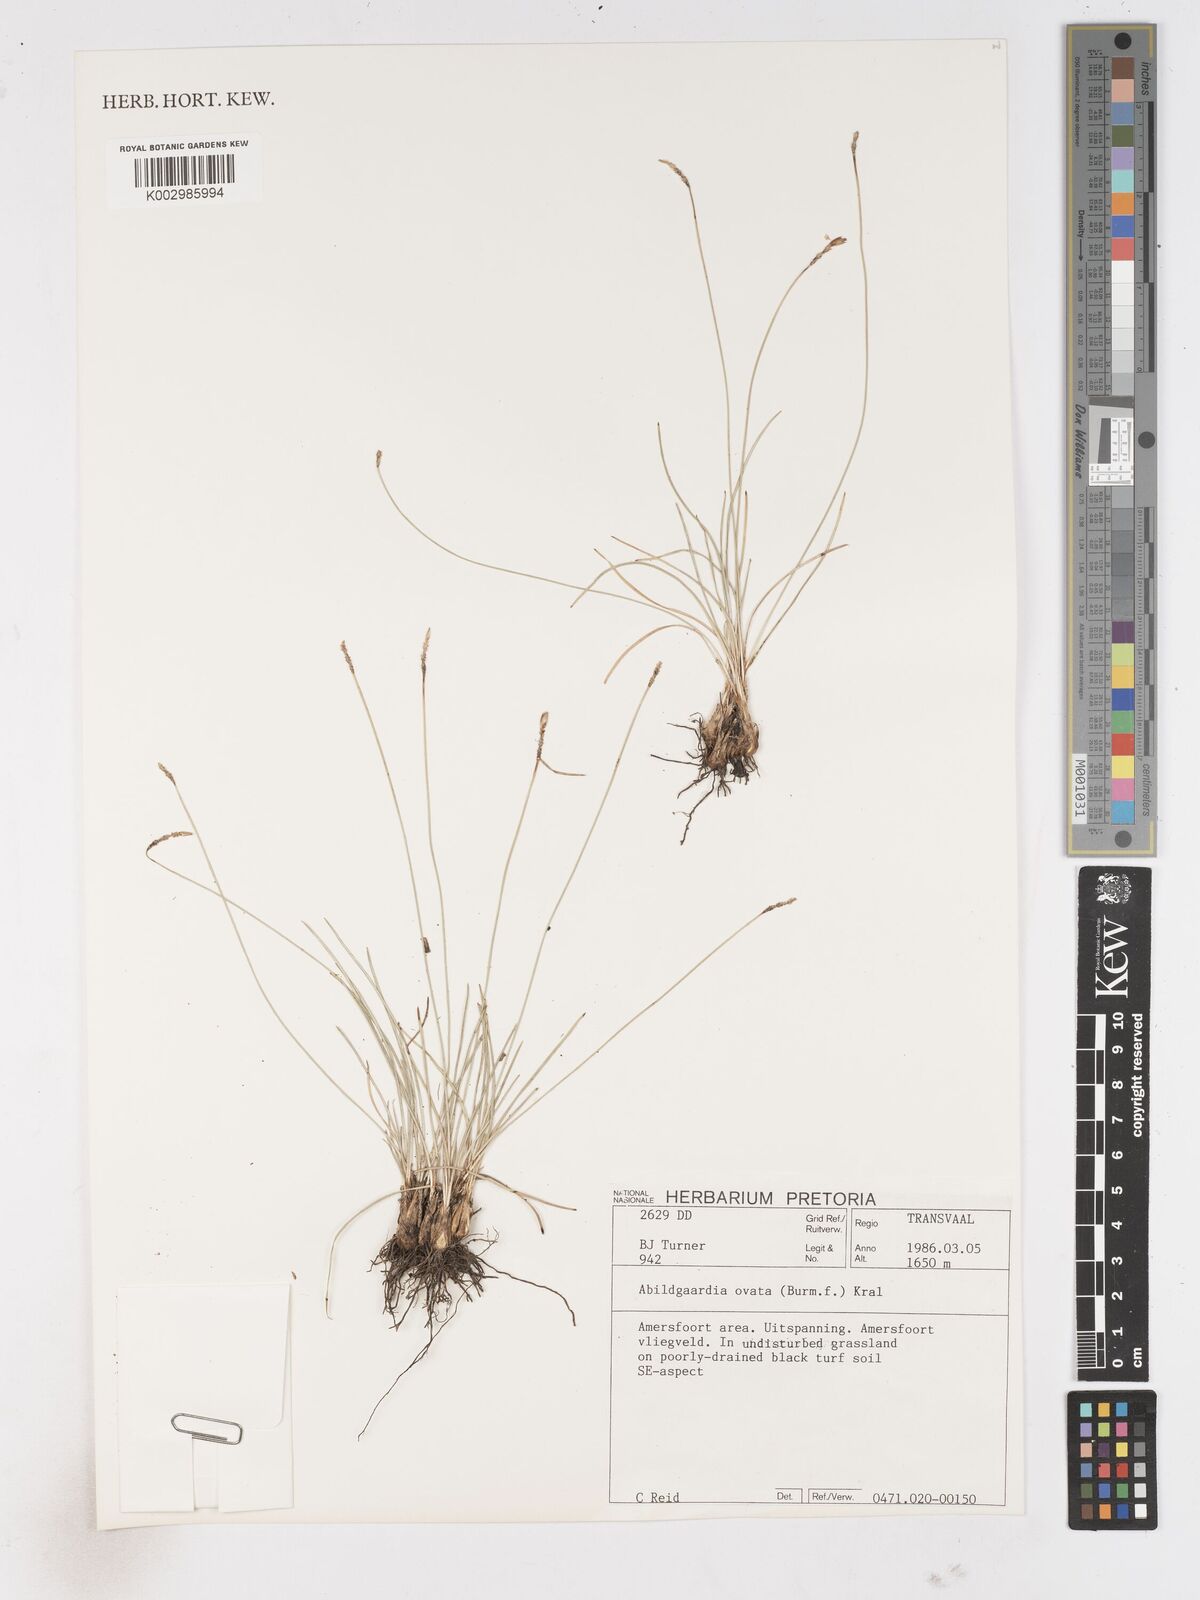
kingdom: Plantae
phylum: Tracheophyta
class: Liliopsida
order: Poales
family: Cyperaceae
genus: Abildgaardia
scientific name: Abildgaardia ovata
